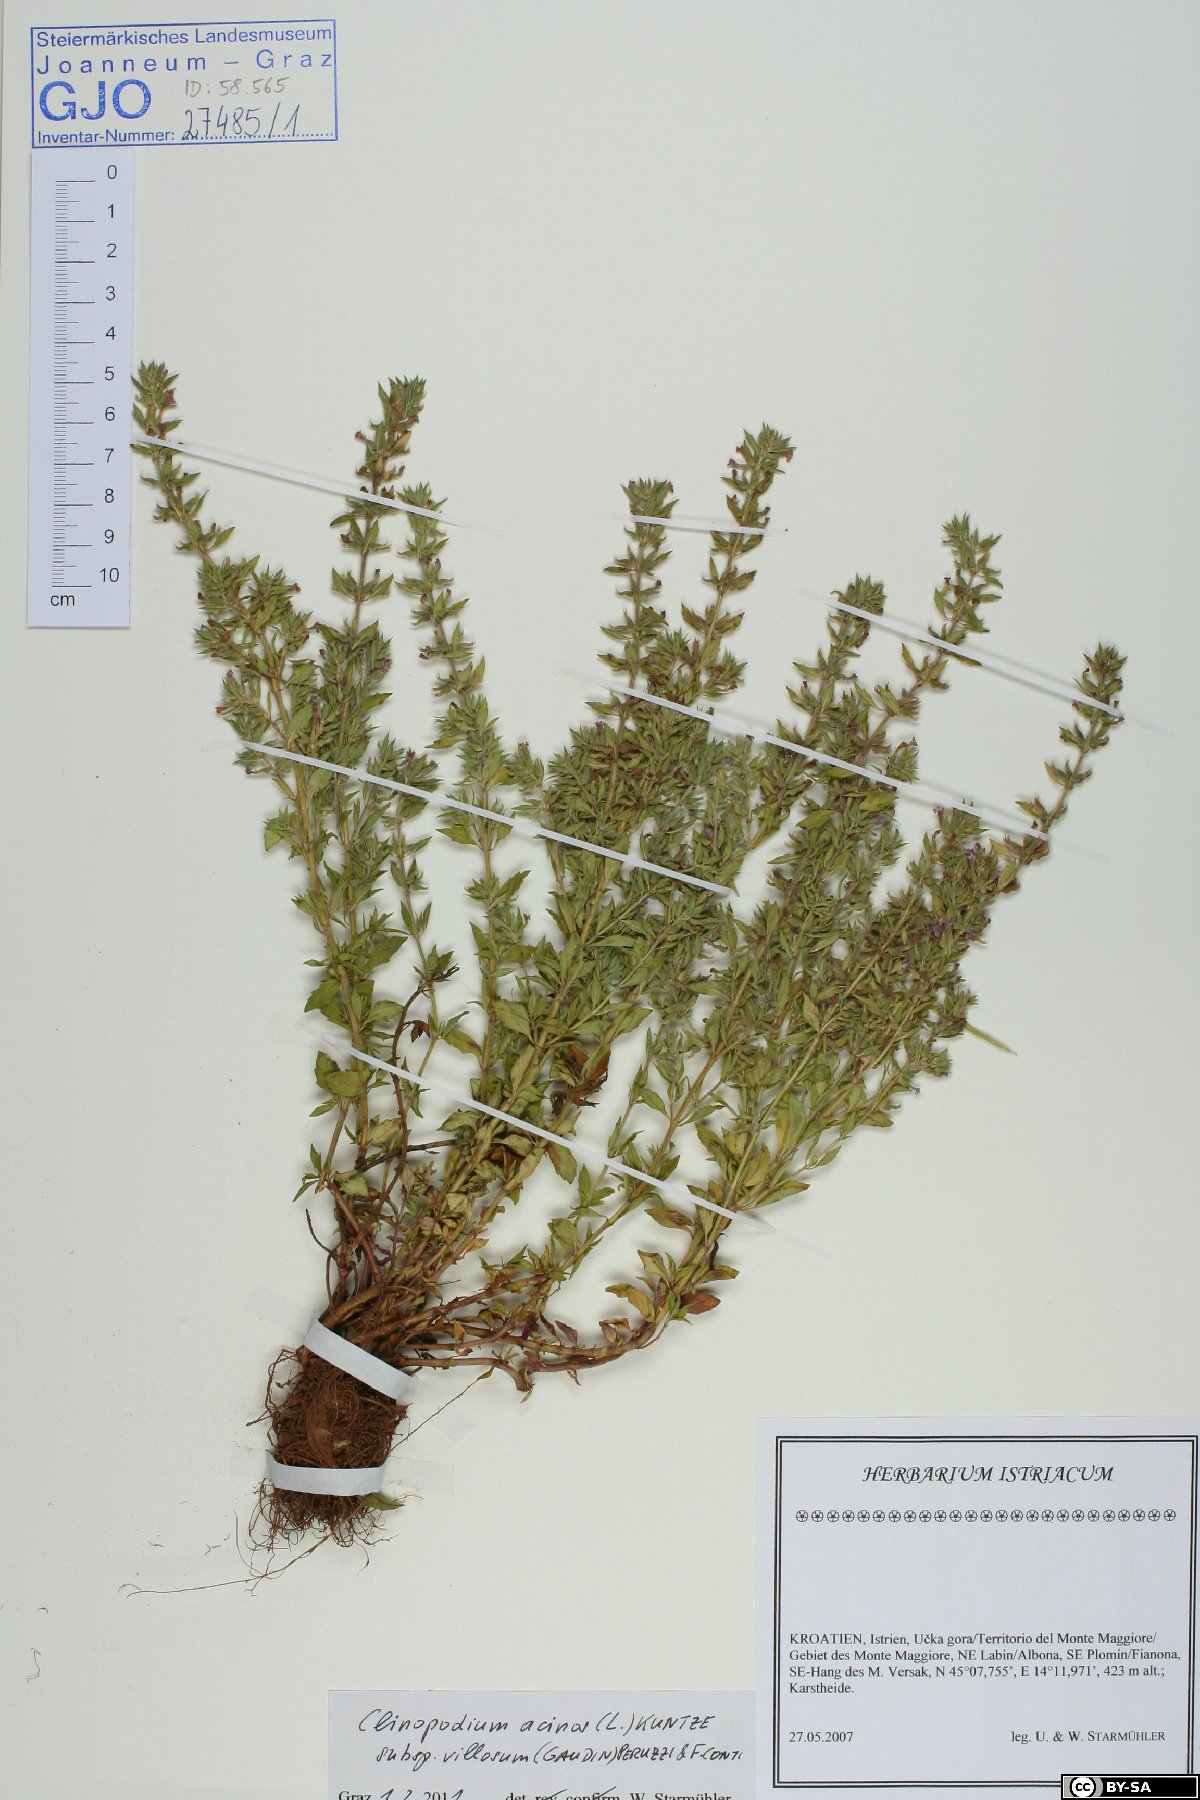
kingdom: Plantae
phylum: Tracheophyta
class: Magnoliopsida
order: Lamiales
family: Lamiaceae
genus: Clinopodium
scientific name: Clinopodium acinos
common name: Basil thyme
